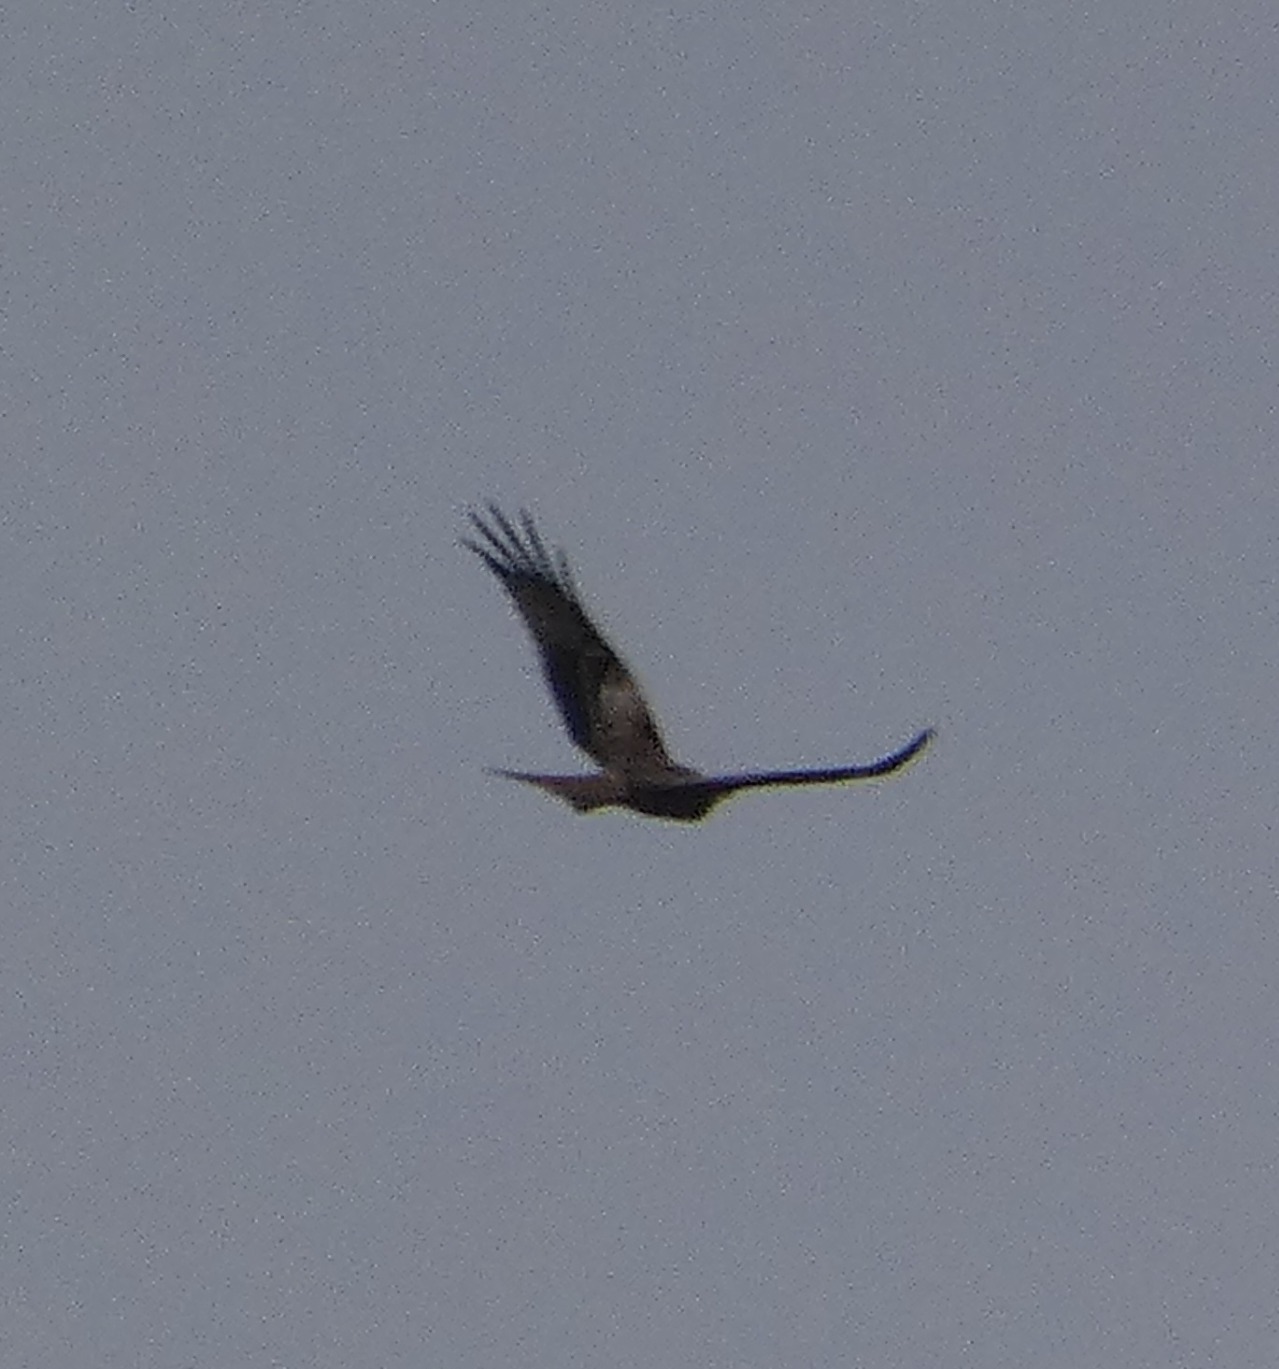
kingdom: Animalia
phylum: Chordata
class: Aves
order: Accipitriformes
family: Accipitridae
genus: Milvus
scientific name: Milvus milvus
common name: Rød glente
